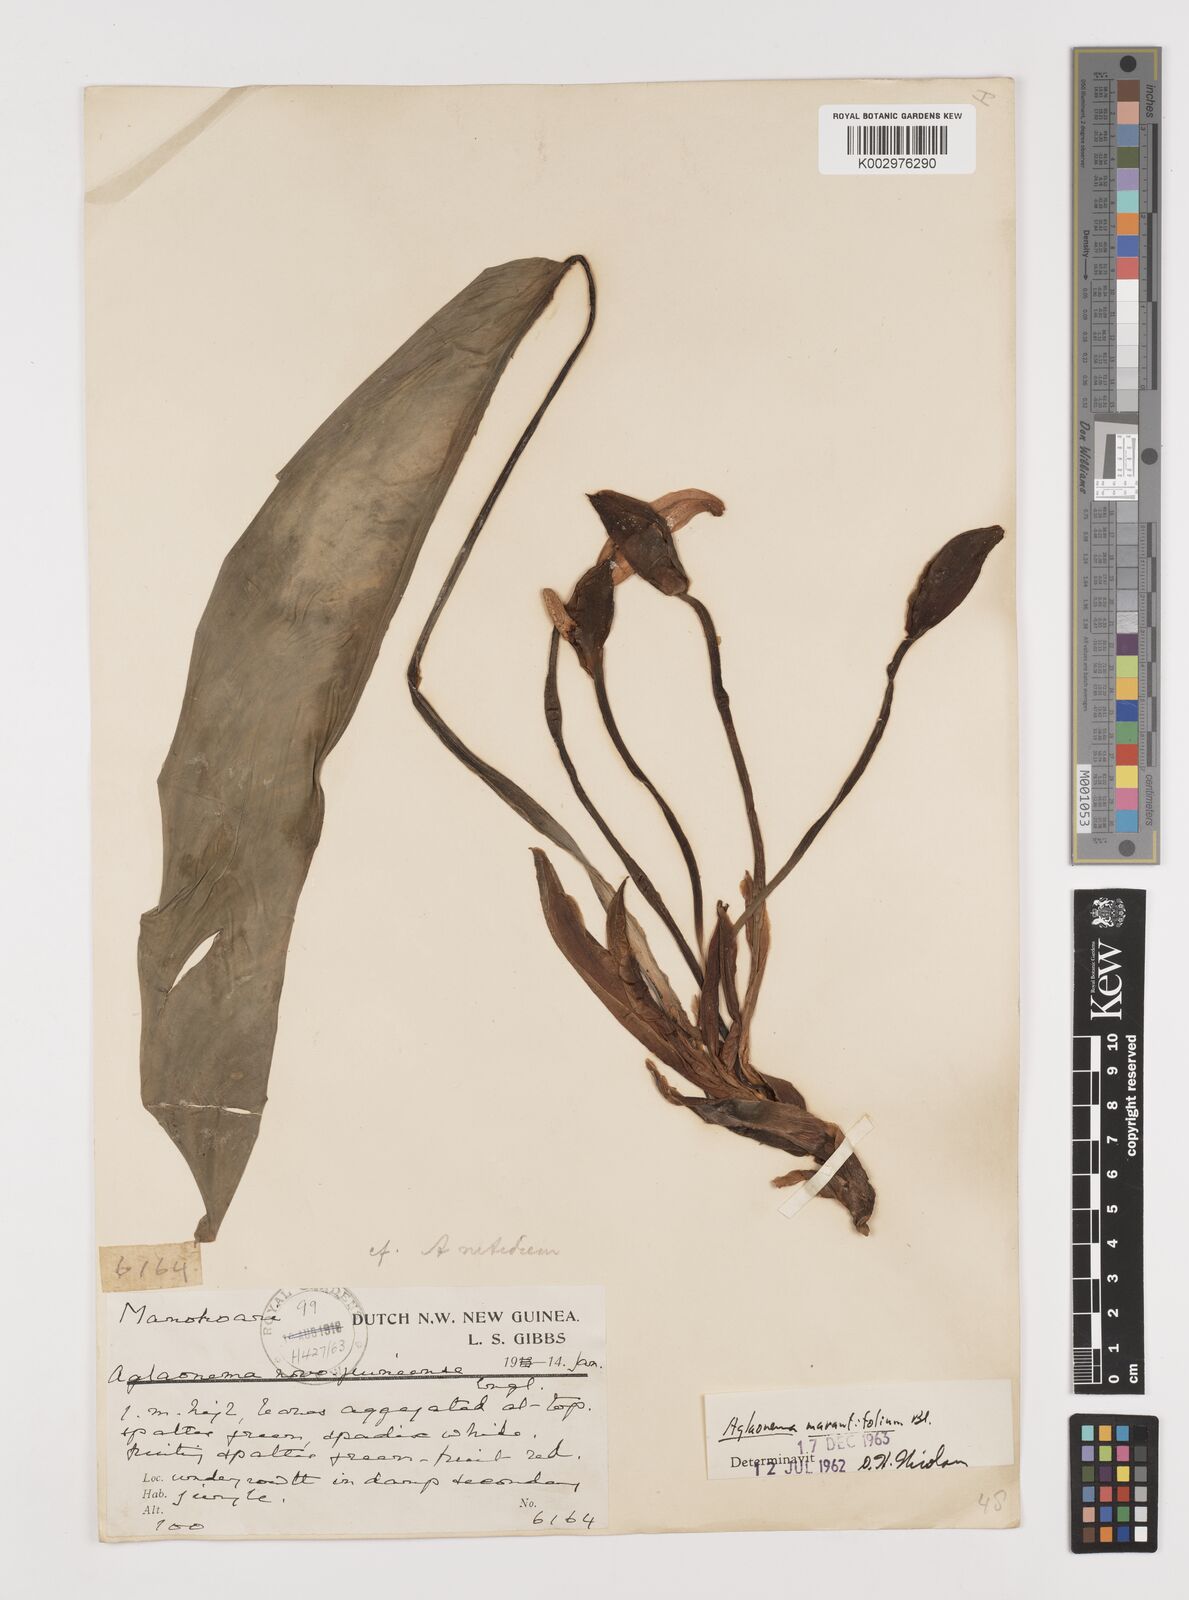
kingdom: Plantae
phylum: Tracheophyta
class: Liliopsida
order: Alismatales
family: Araceae
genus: Aglaonema
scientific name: Aglaonema marantifolium
